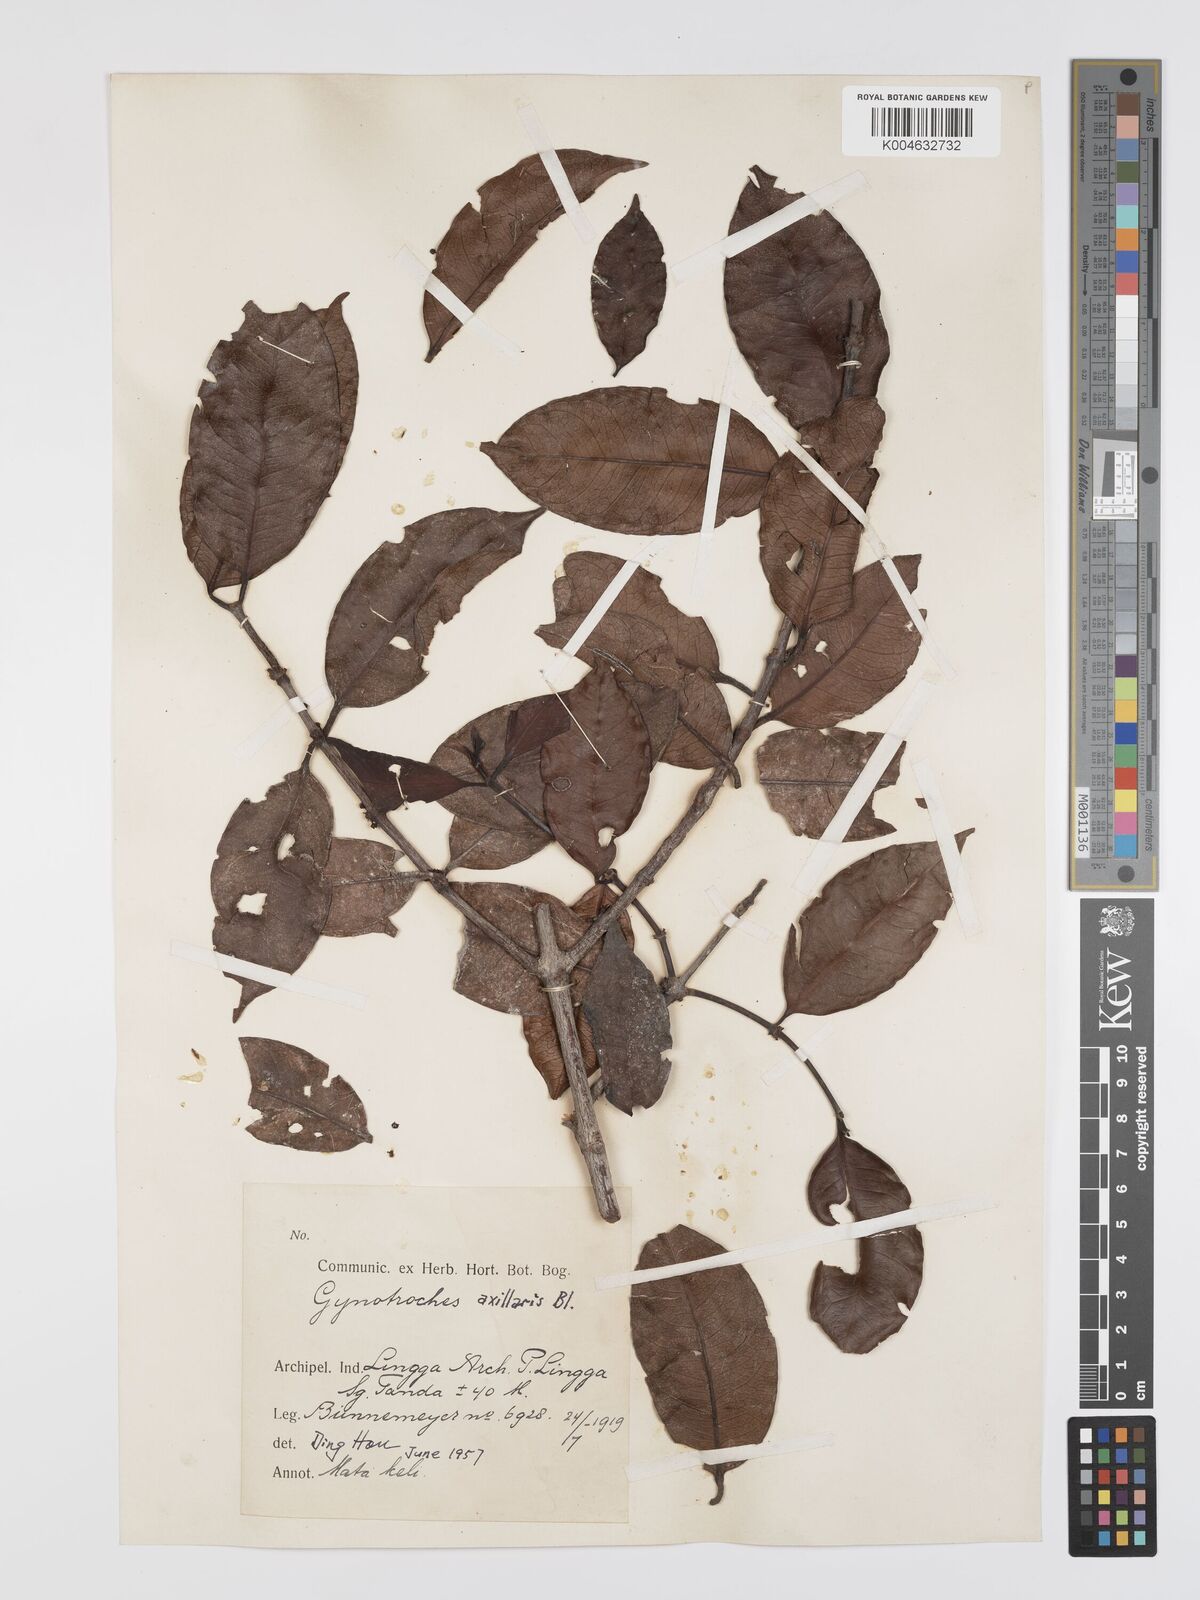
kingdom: Plantae
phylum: Tracheophyta
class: Magnoliopsida
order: Malpighiales
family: Rhizophoraceae
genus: Gynotroches
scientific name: Gynotroches axillaris
